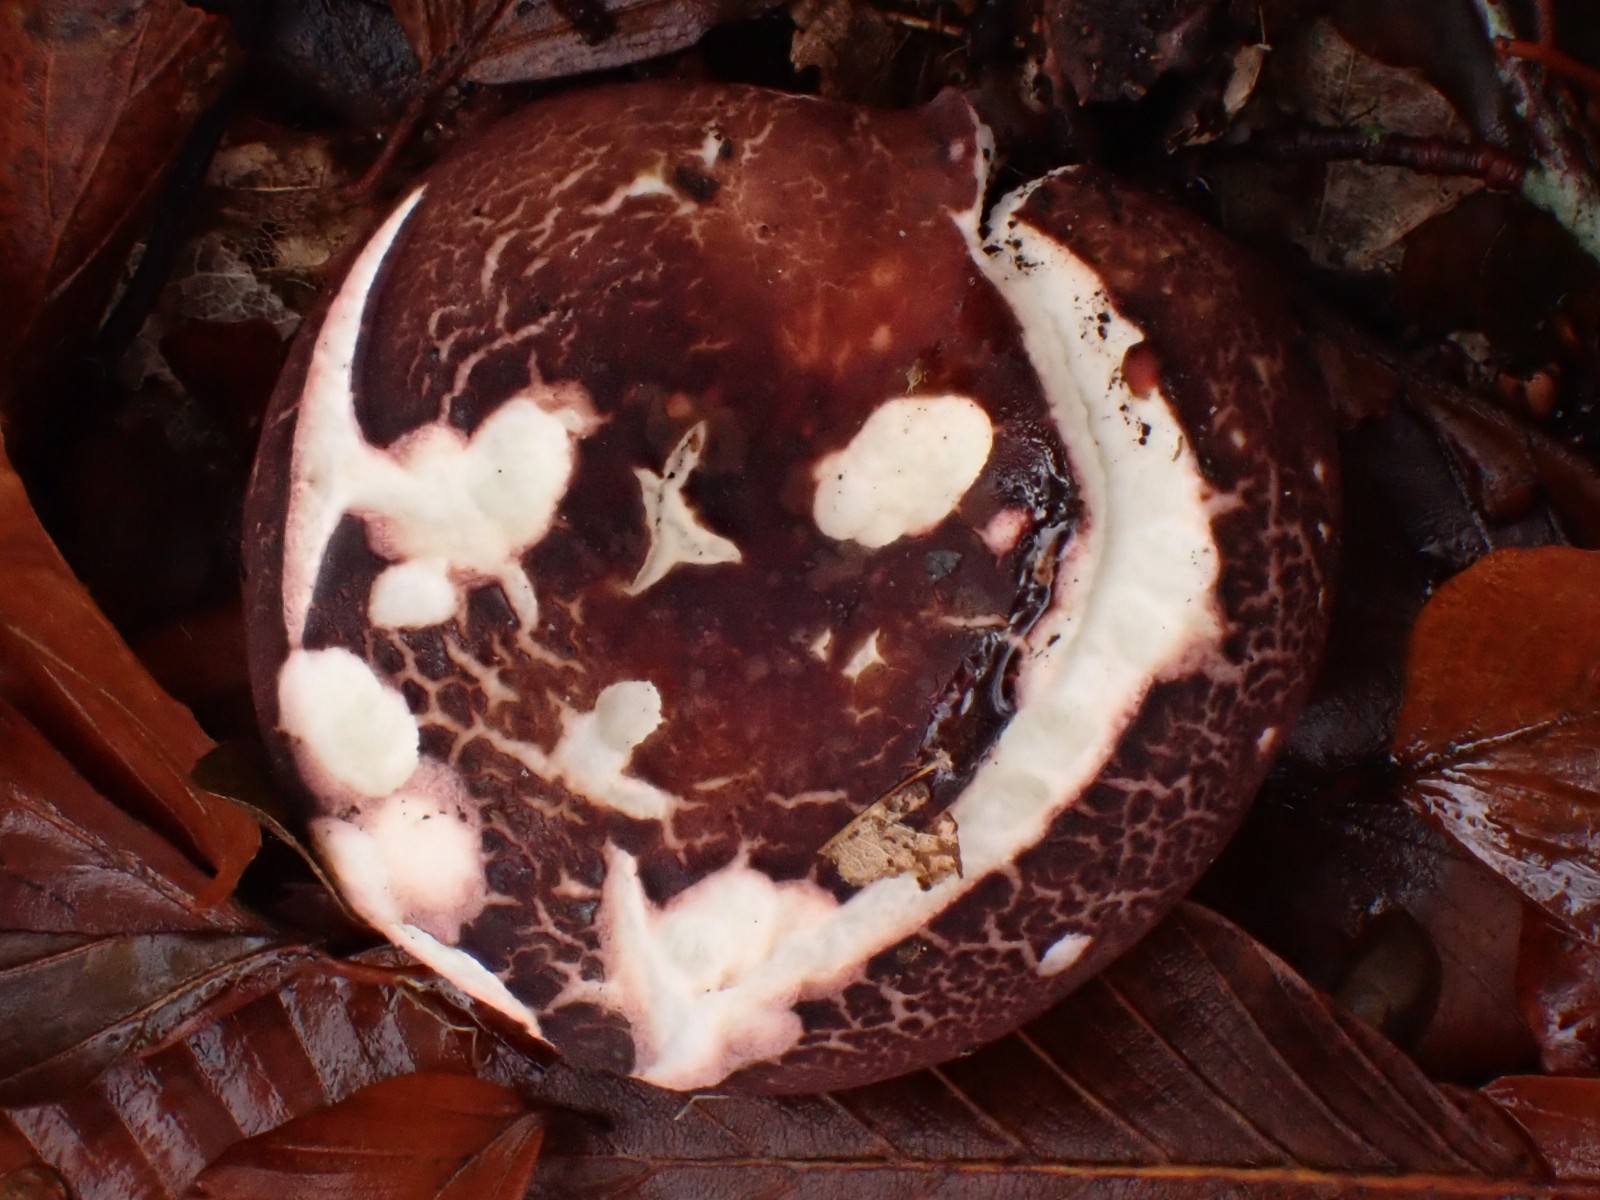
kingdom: Fungi
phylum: Basidiomycota
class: Agaricomycetes
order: Russulales
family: Russulaceae
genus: Russula
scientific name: Russula
